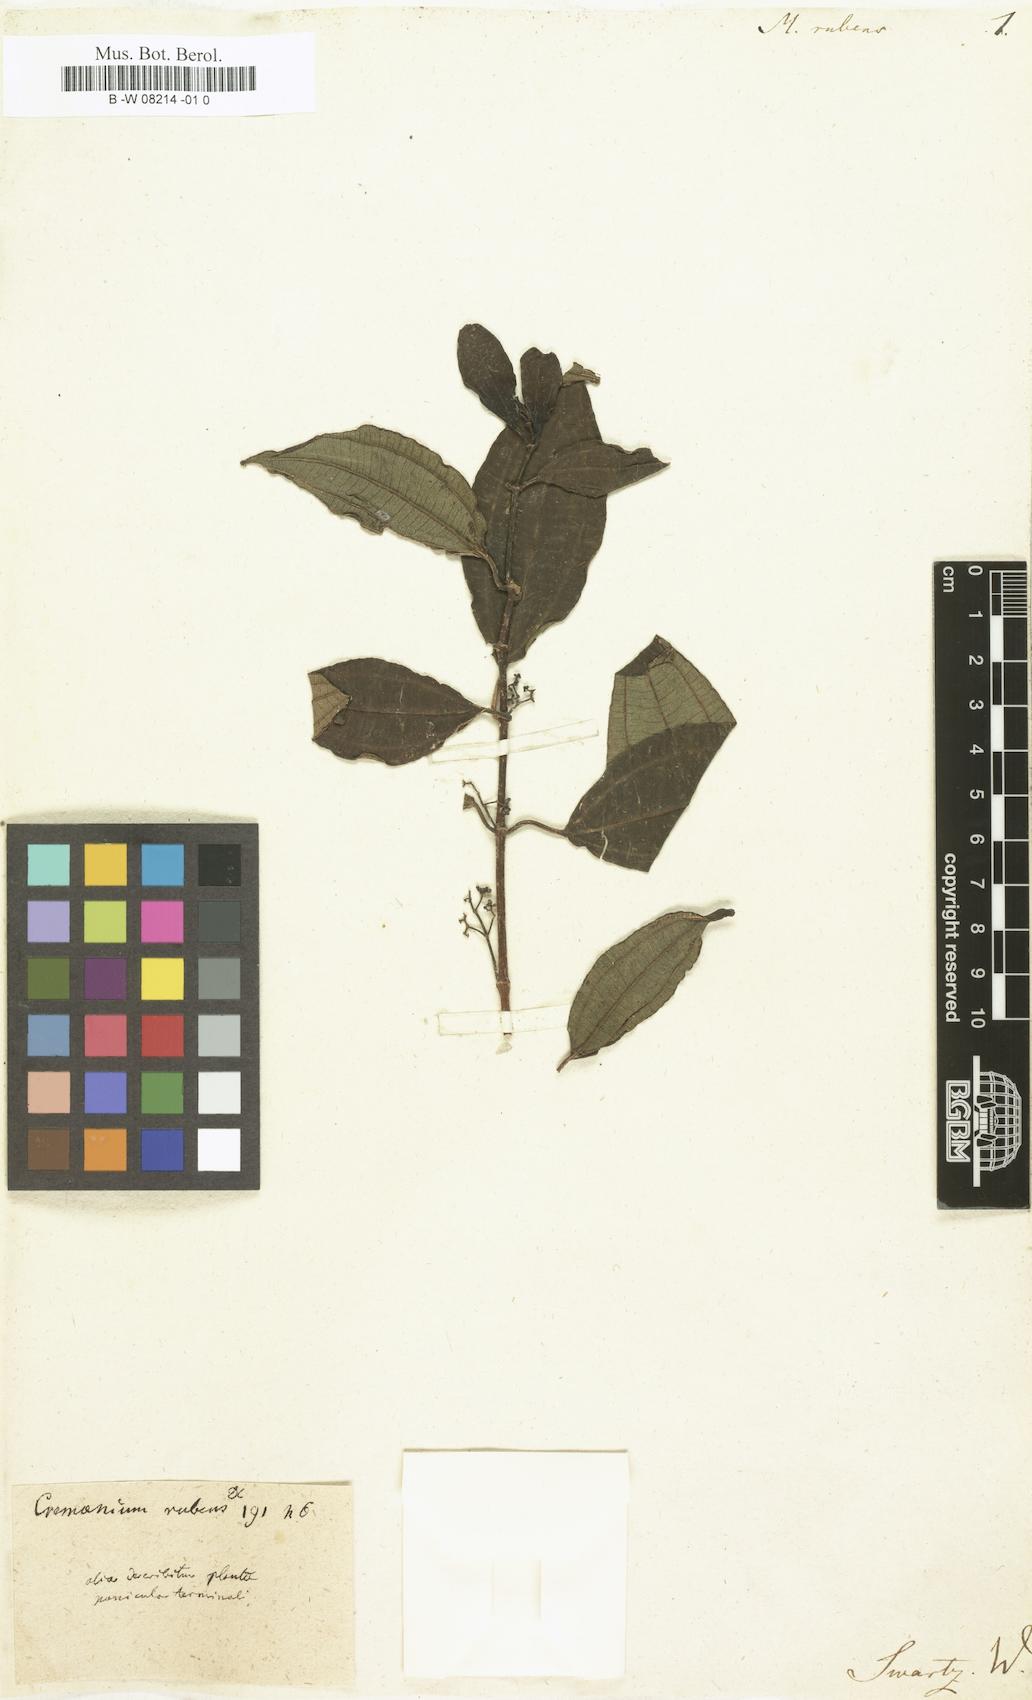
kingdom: Plantae
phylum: Tracheophyta
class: Magnoliopsida
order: Myrtales
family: Melastomataceae
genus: Miconia
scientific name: Miconia rubens
